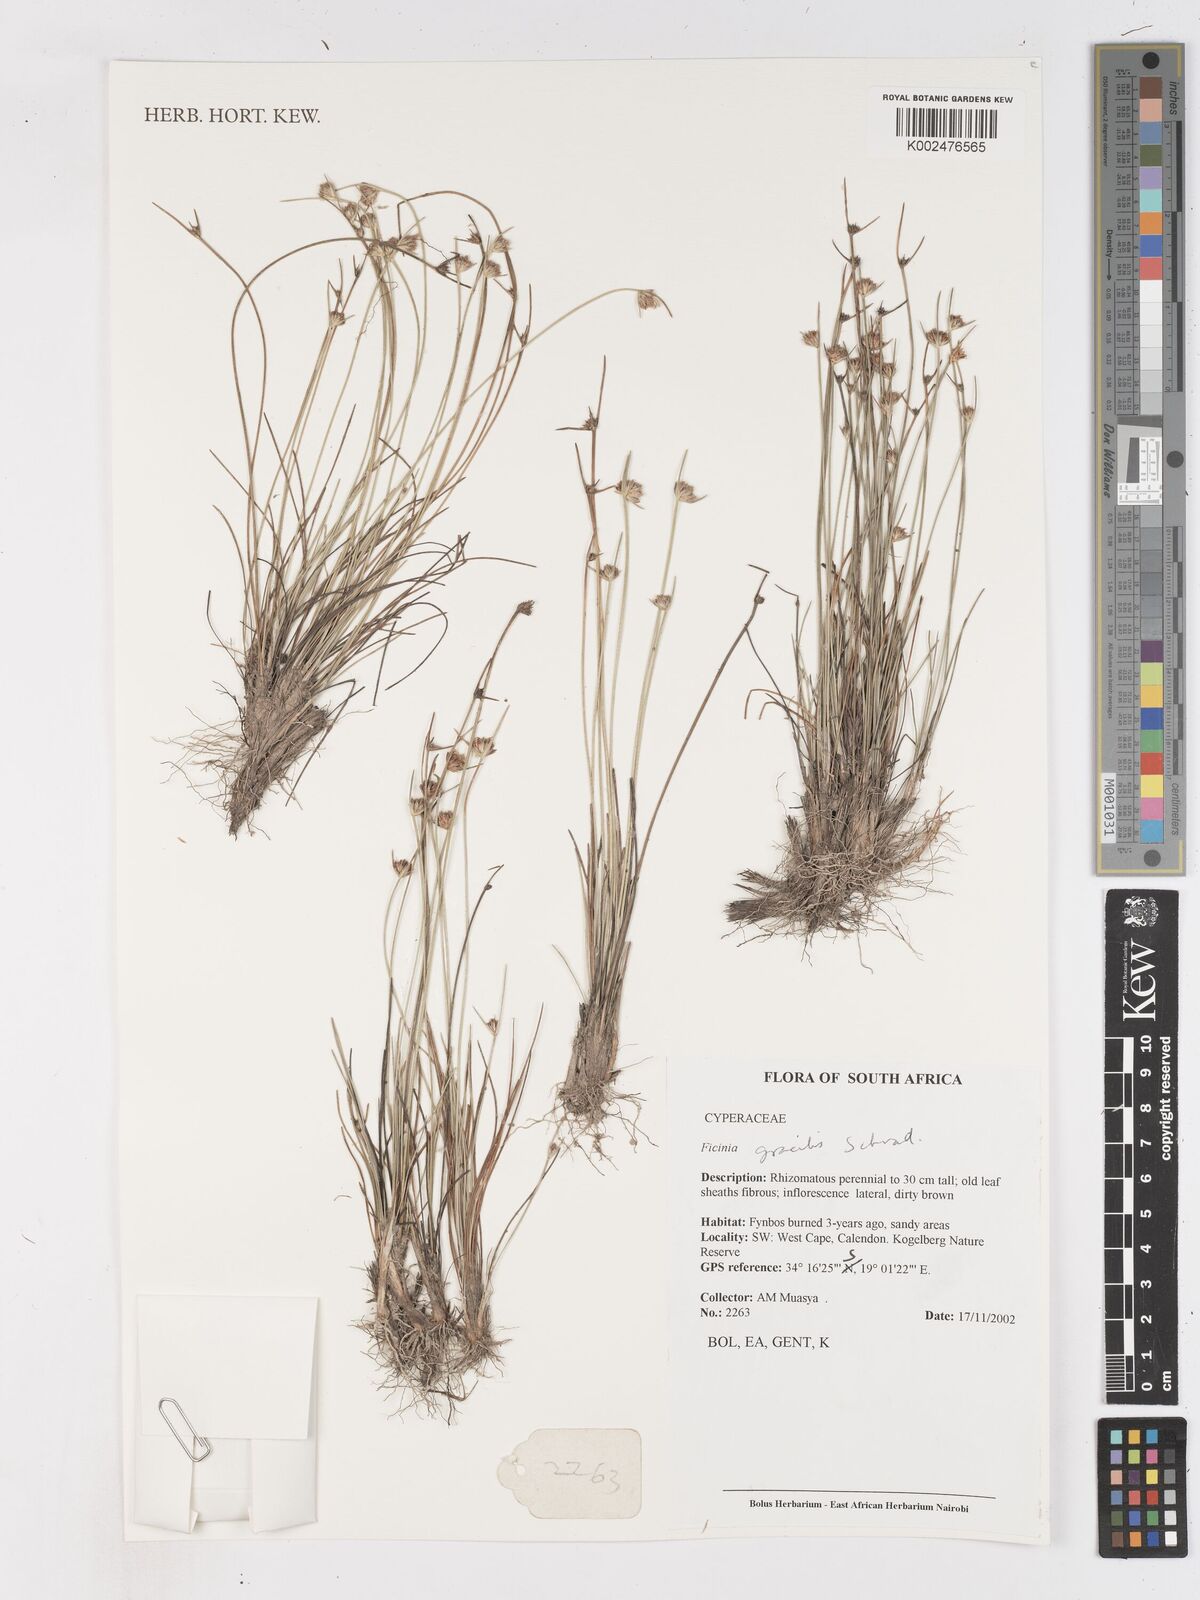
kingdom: Plantae
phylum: Tracheophyta
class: Liliopsida
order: Poales
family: Cyperaceae
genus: Ficinia
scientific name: Ficinia
